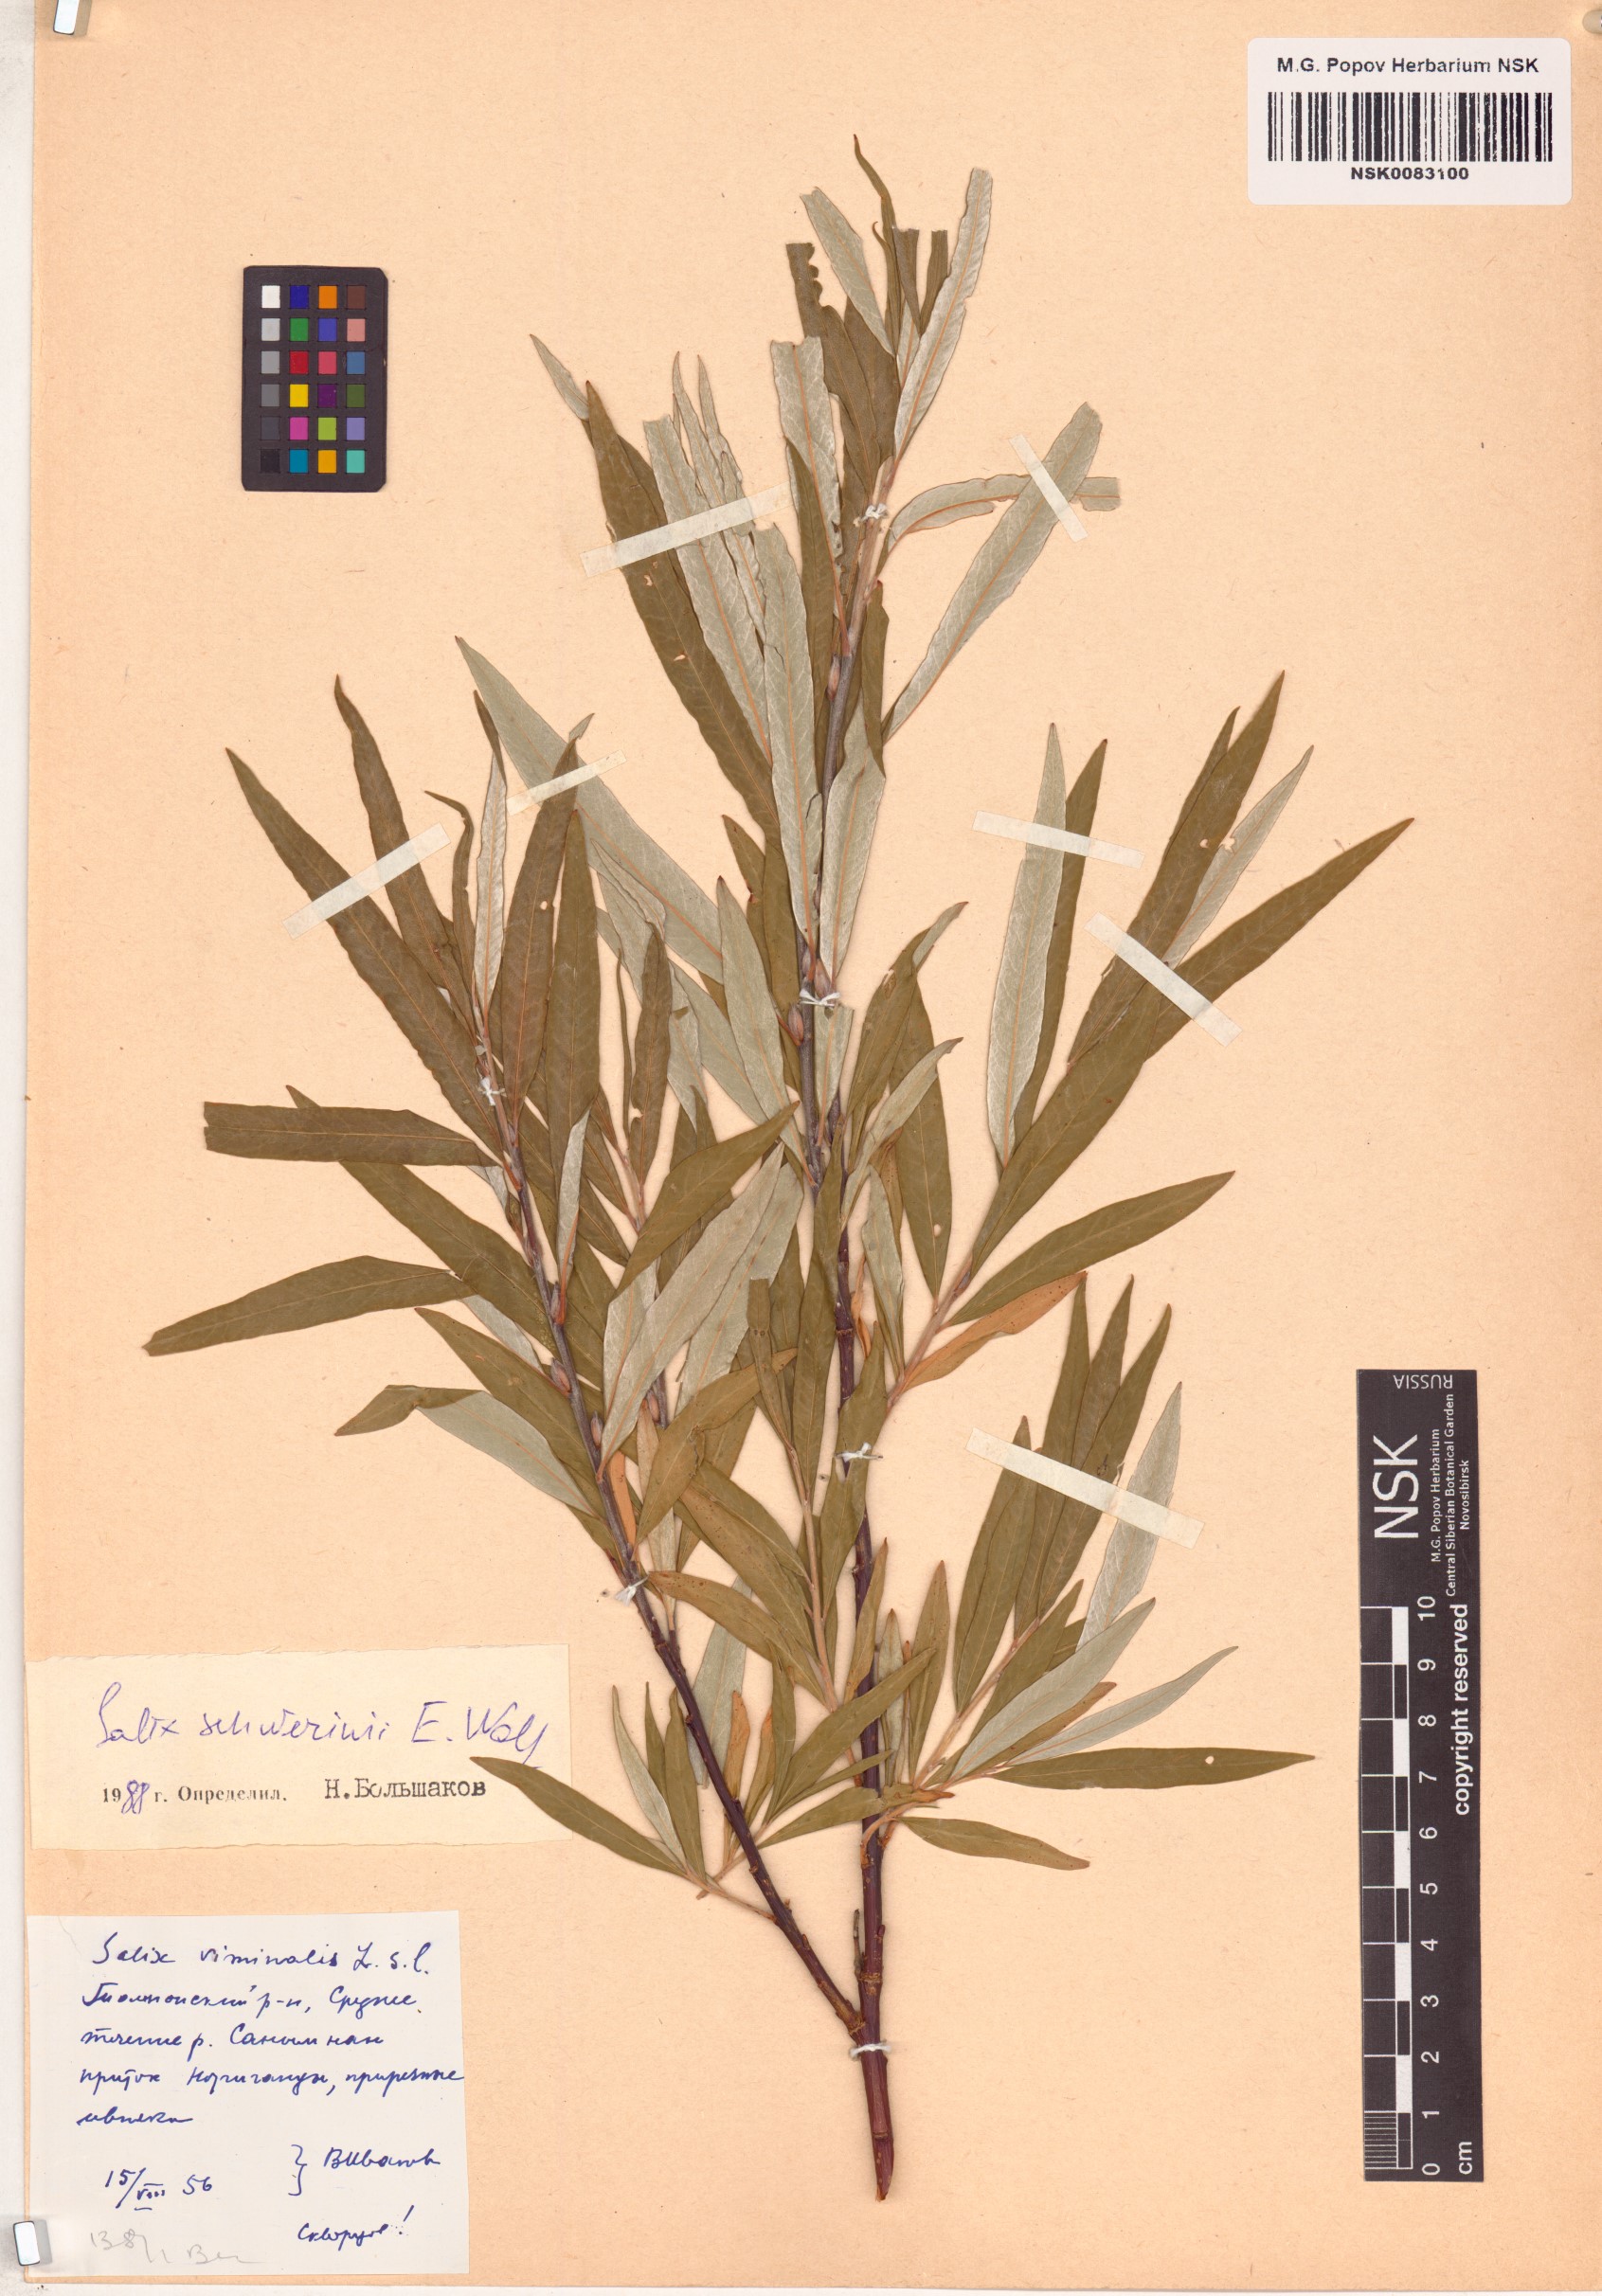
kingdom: Plantae
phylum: Tracheophyta
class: Magnoliopsida
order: Malpighiales
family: Salicaceae
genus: Salix
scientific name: Salix viminalis
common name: Osier
